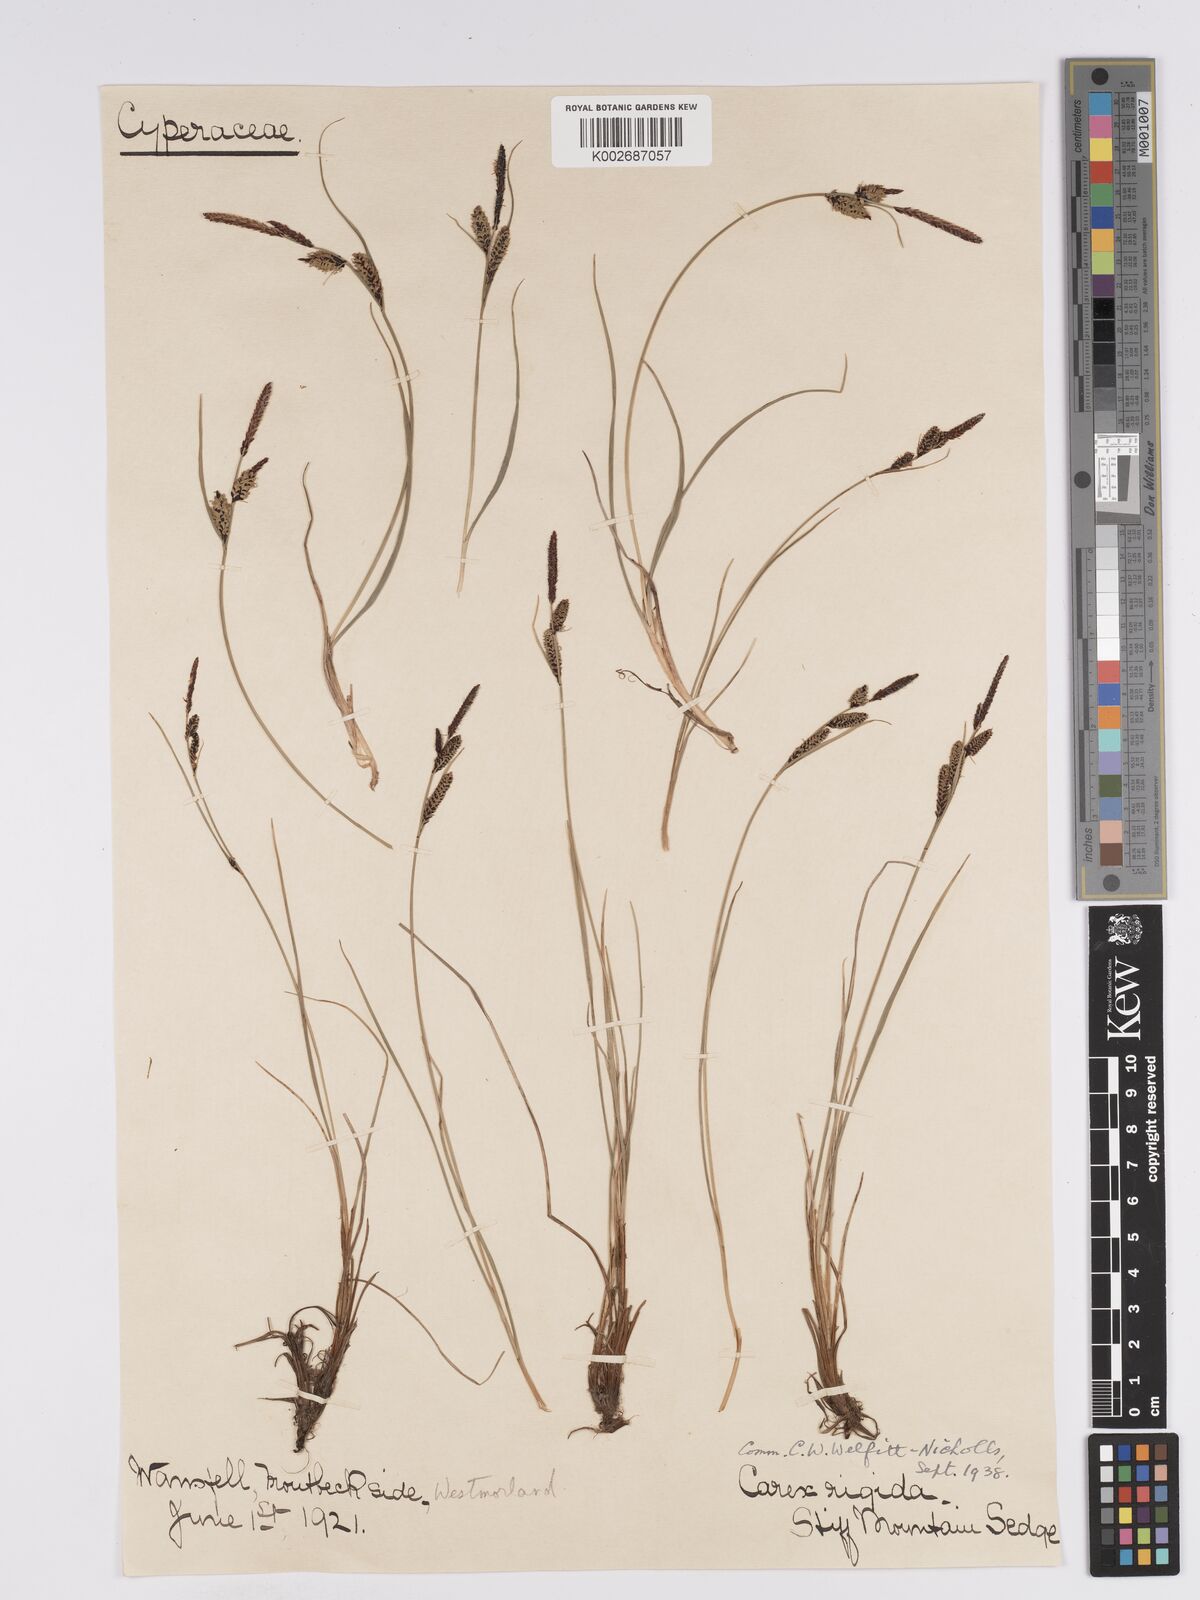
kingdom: Plantae
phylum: Tracheophyta
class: Liliopsida
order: Poales
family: Cyperaceae
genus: Carex
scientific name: Carex nigra
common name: Common sedge
